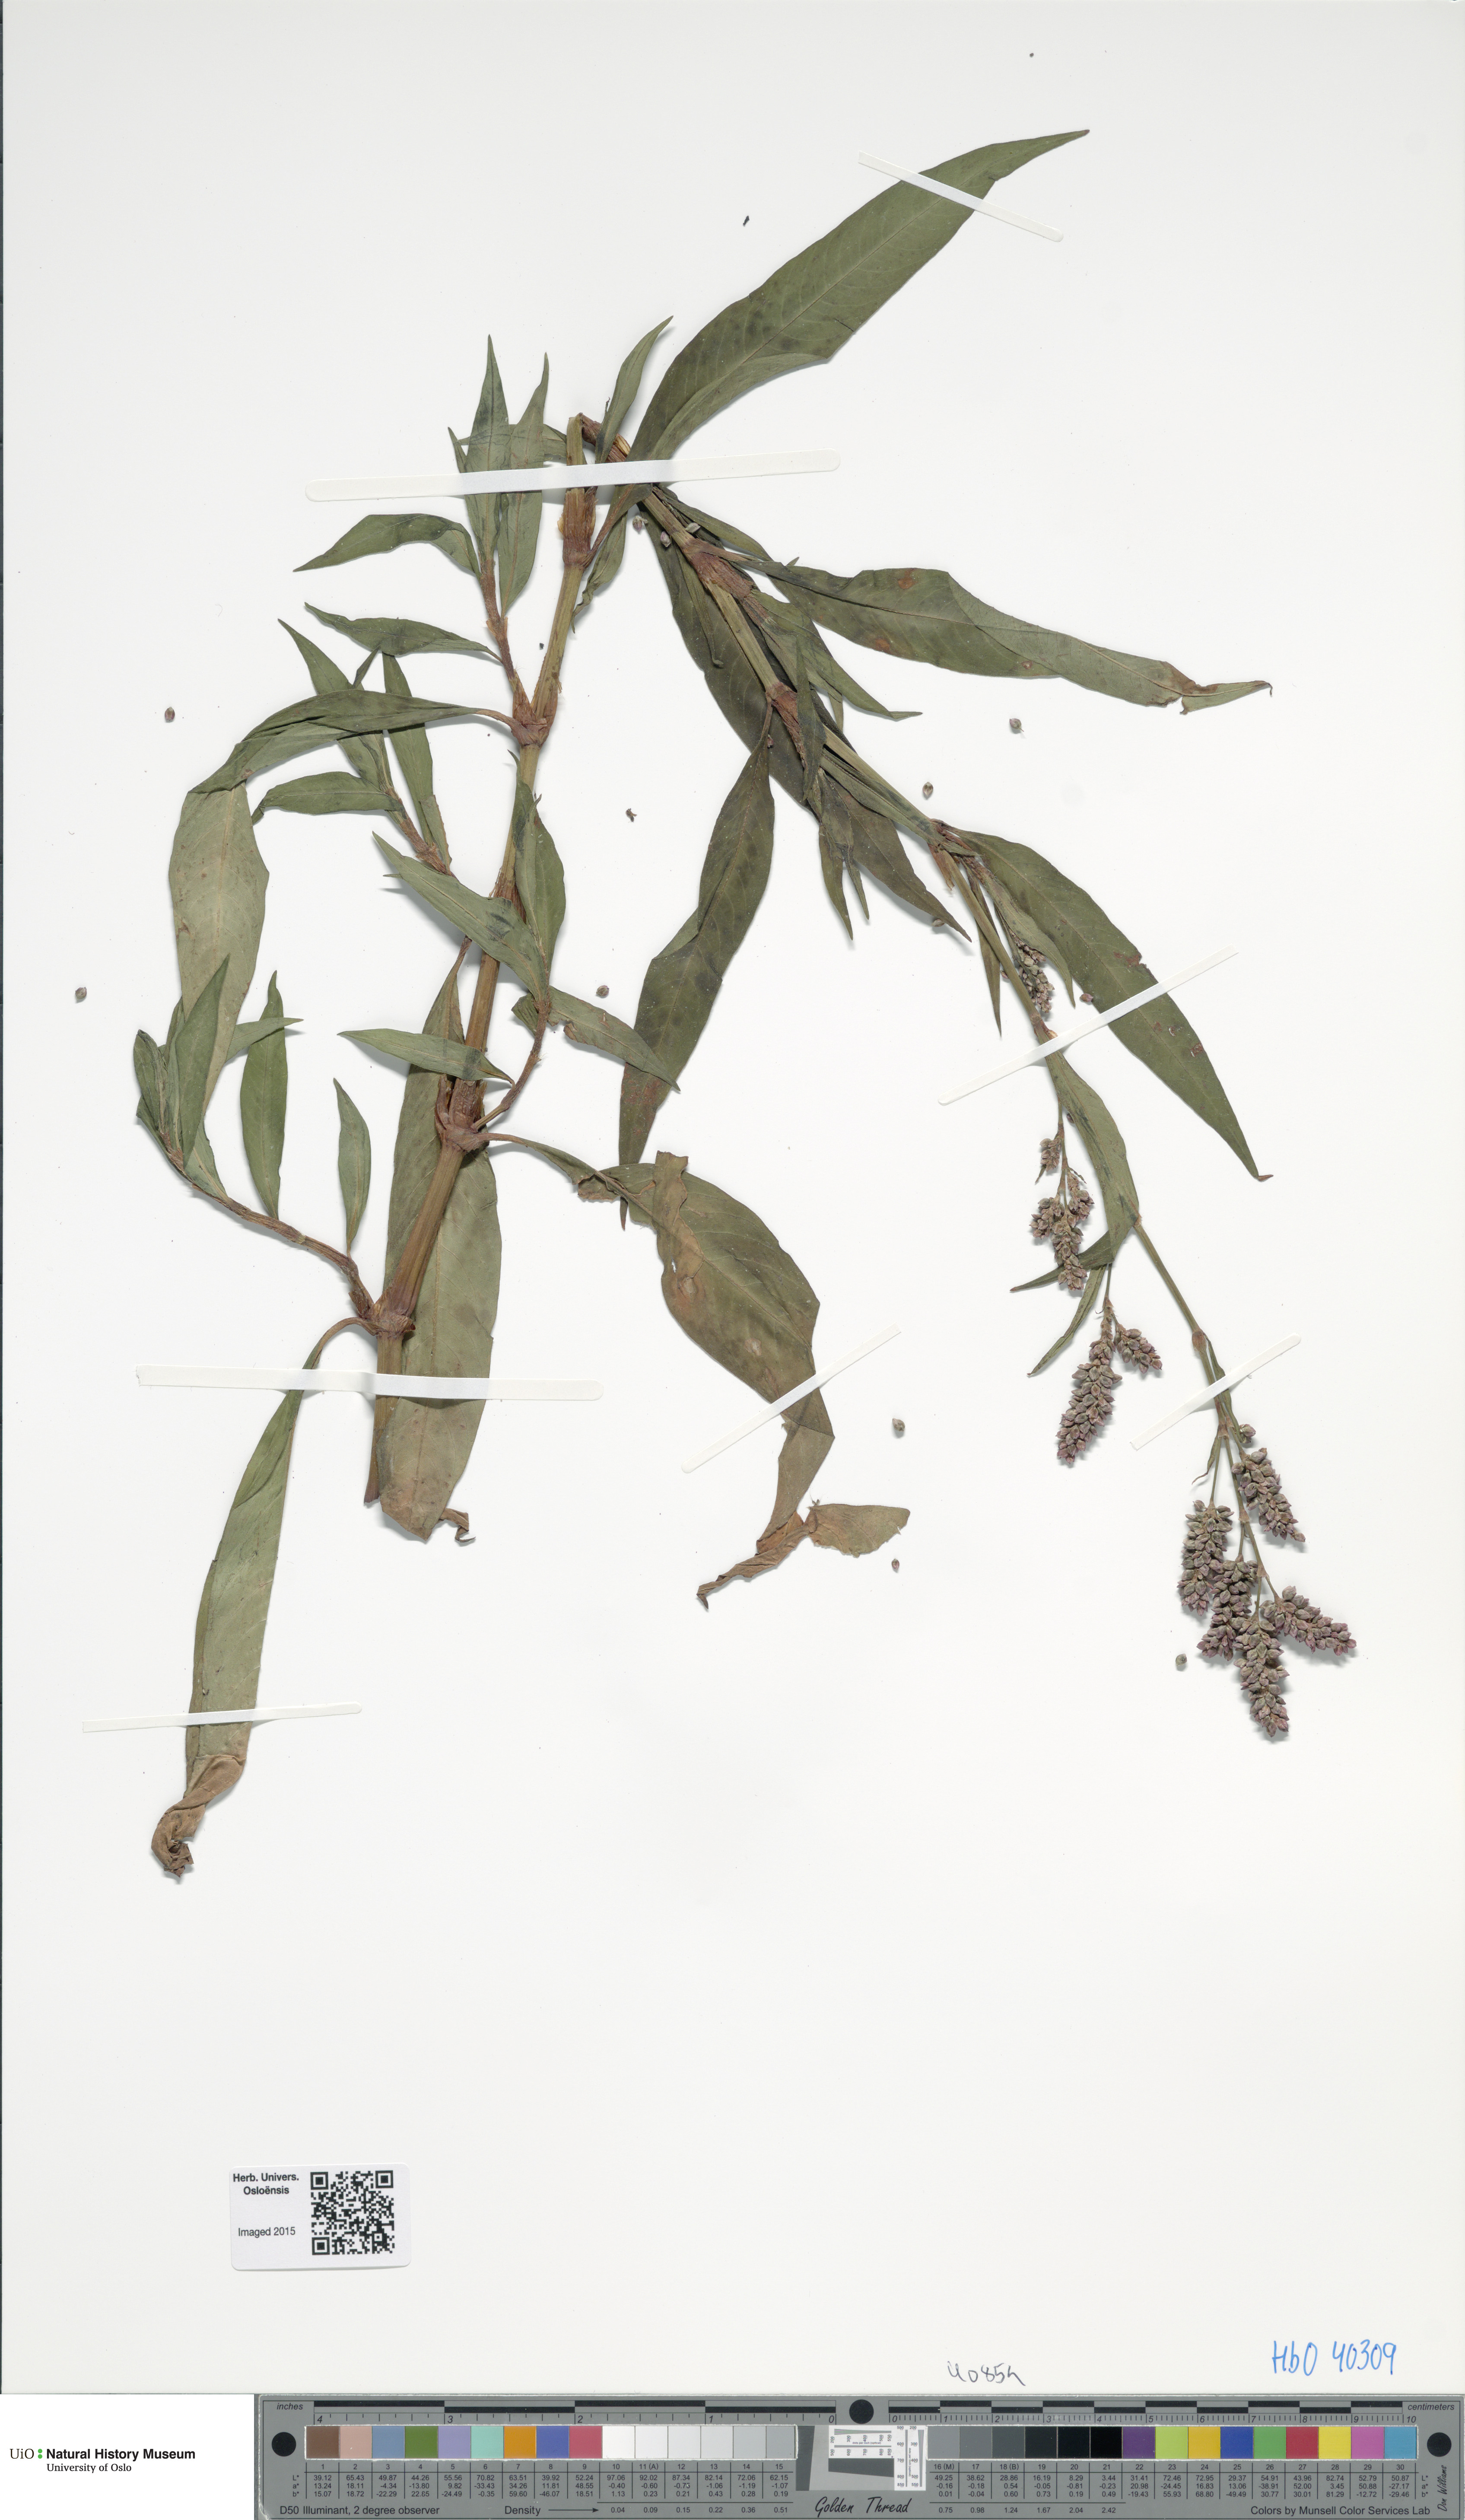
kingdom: Plantae
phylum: Tracheophyta
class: Magnoliopsida
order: Caryophyllales
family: Polygonaceae
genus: Persicaria
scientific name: Persicaria maculosa
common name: Redshank
